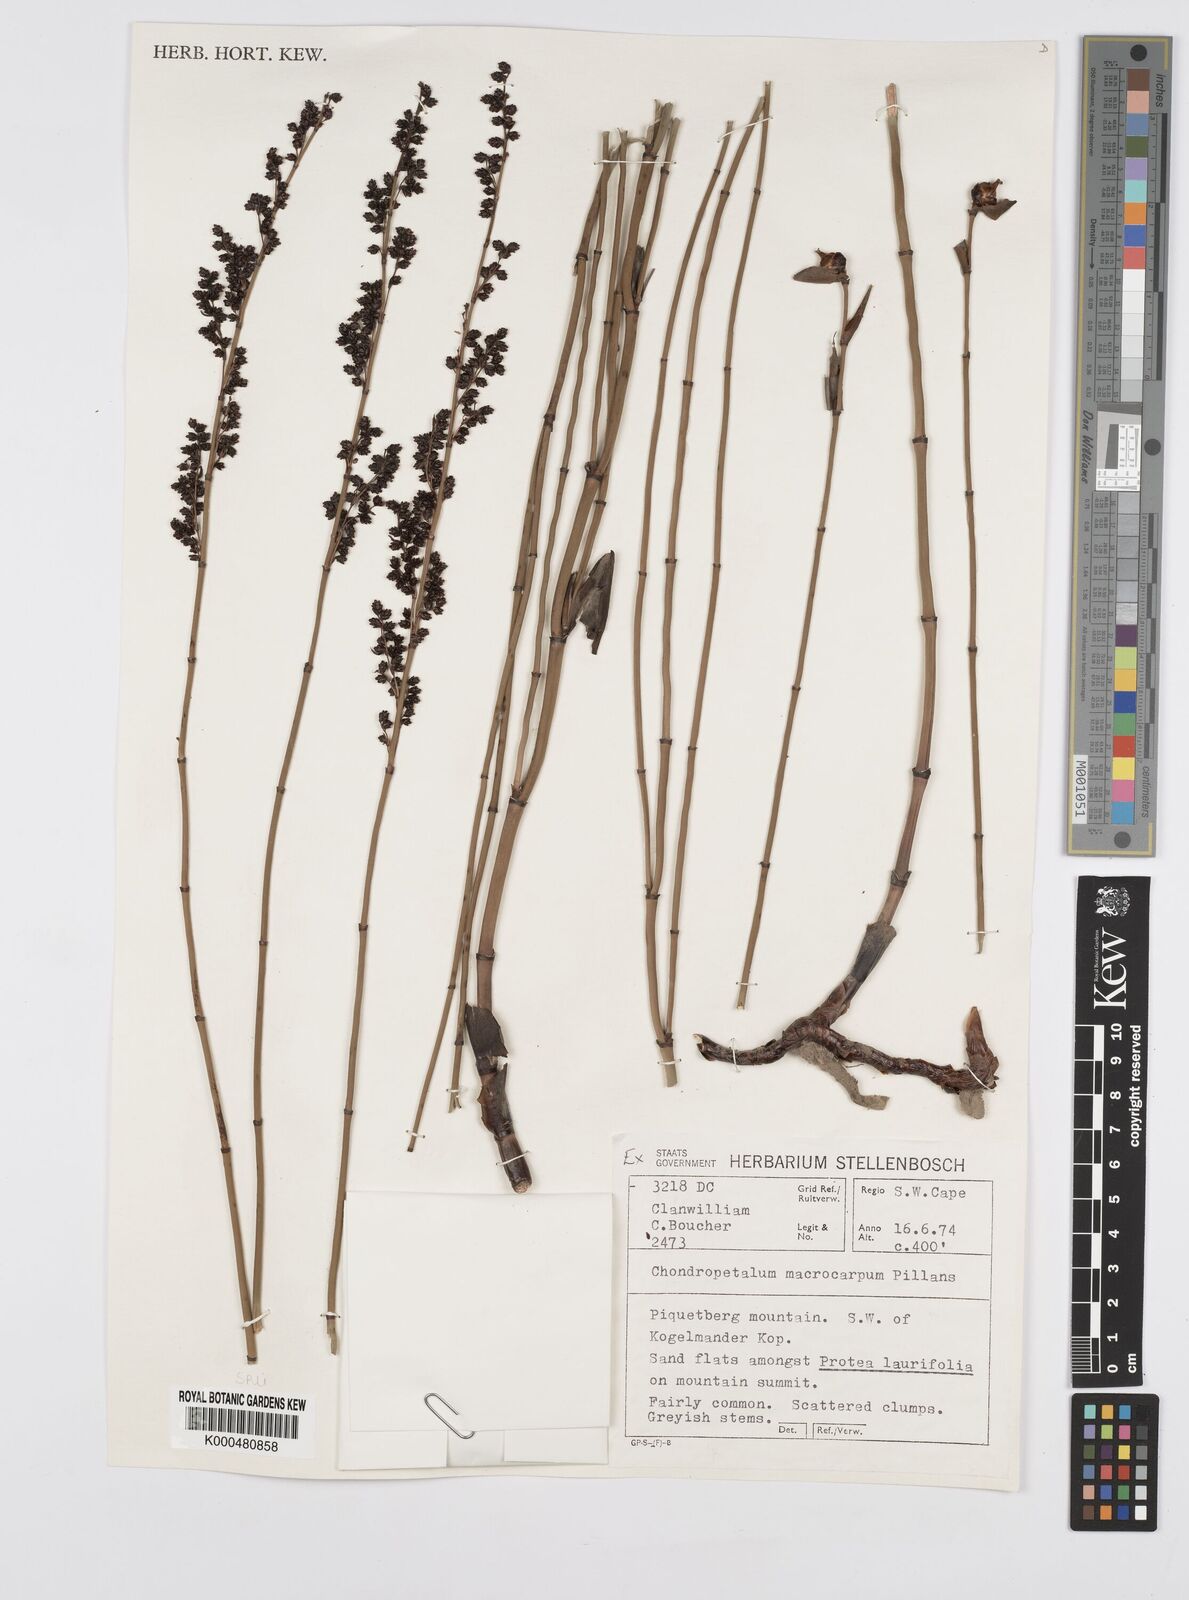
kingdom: Plantae
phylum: Tracheophyta
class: Liliopsida
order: Poales
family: Restionaceae
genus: Elegia
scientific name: Elegia macrocarpa
